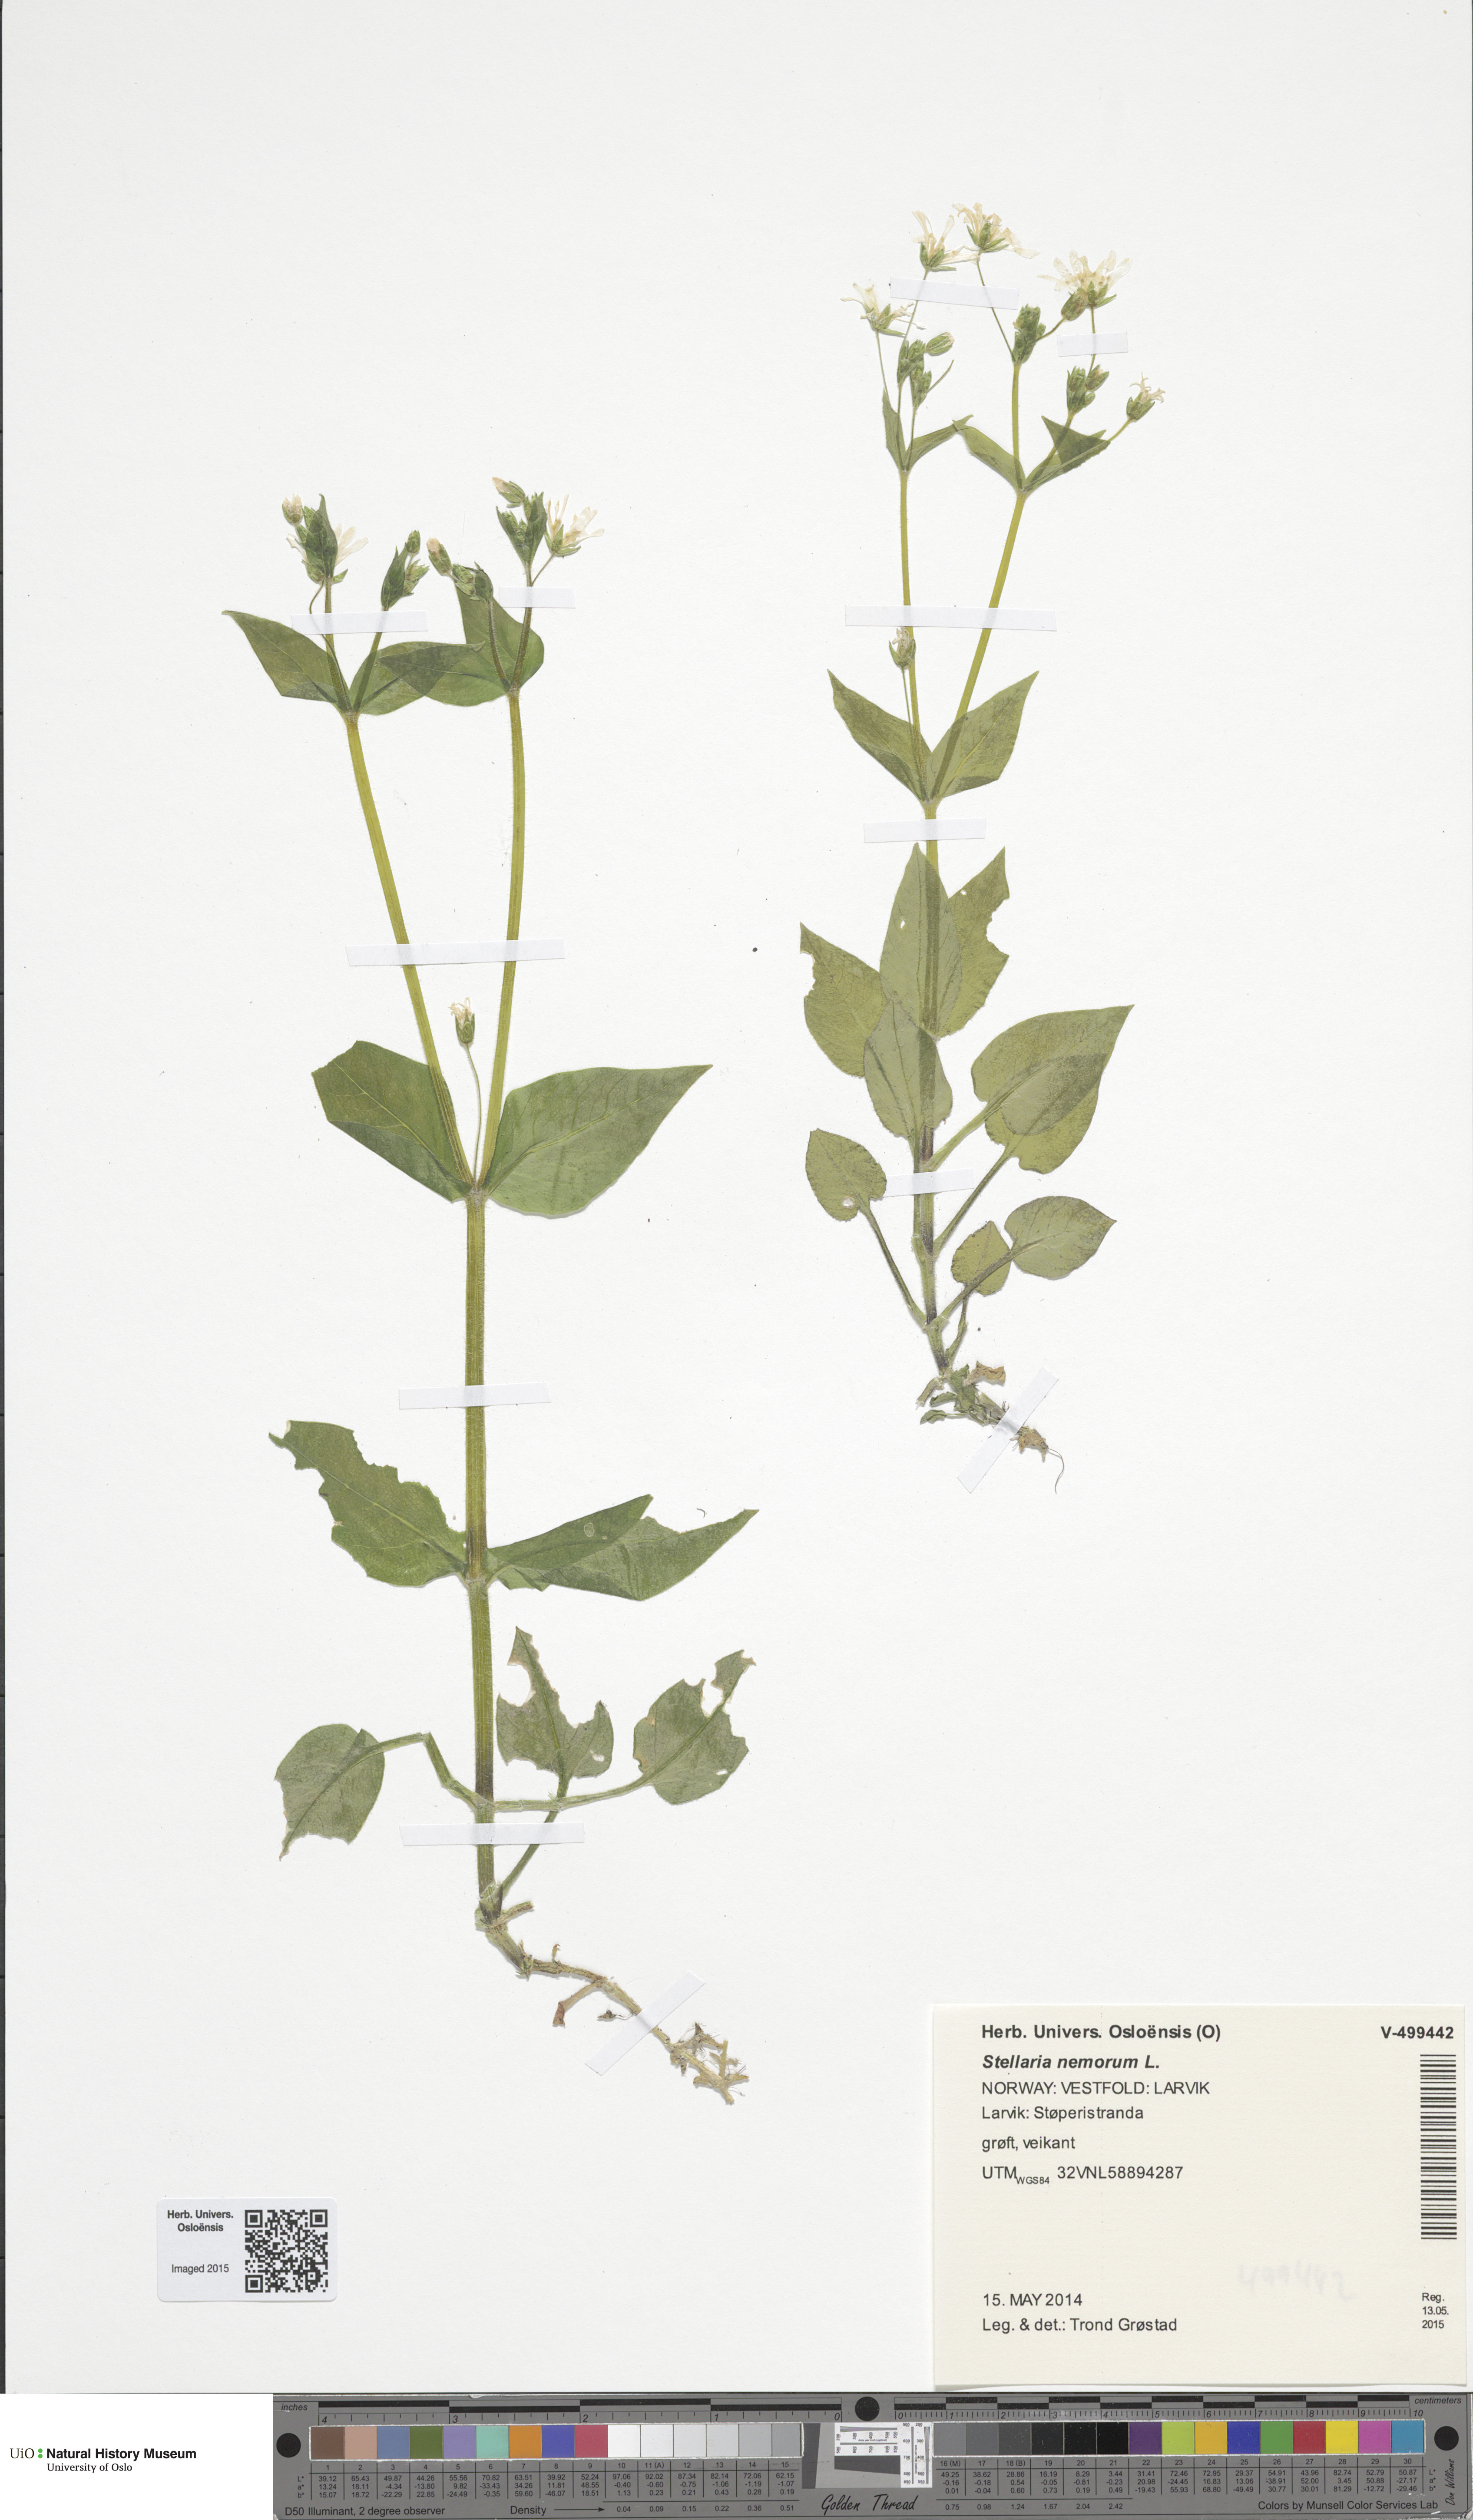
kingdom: Plantae
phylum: Tracheophyta
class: Magnoliopsida
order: Caryophyllales
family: Caryophyllaceae
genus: Stellaria
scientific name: Stellaria nemorum
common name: Wood stitchwort
